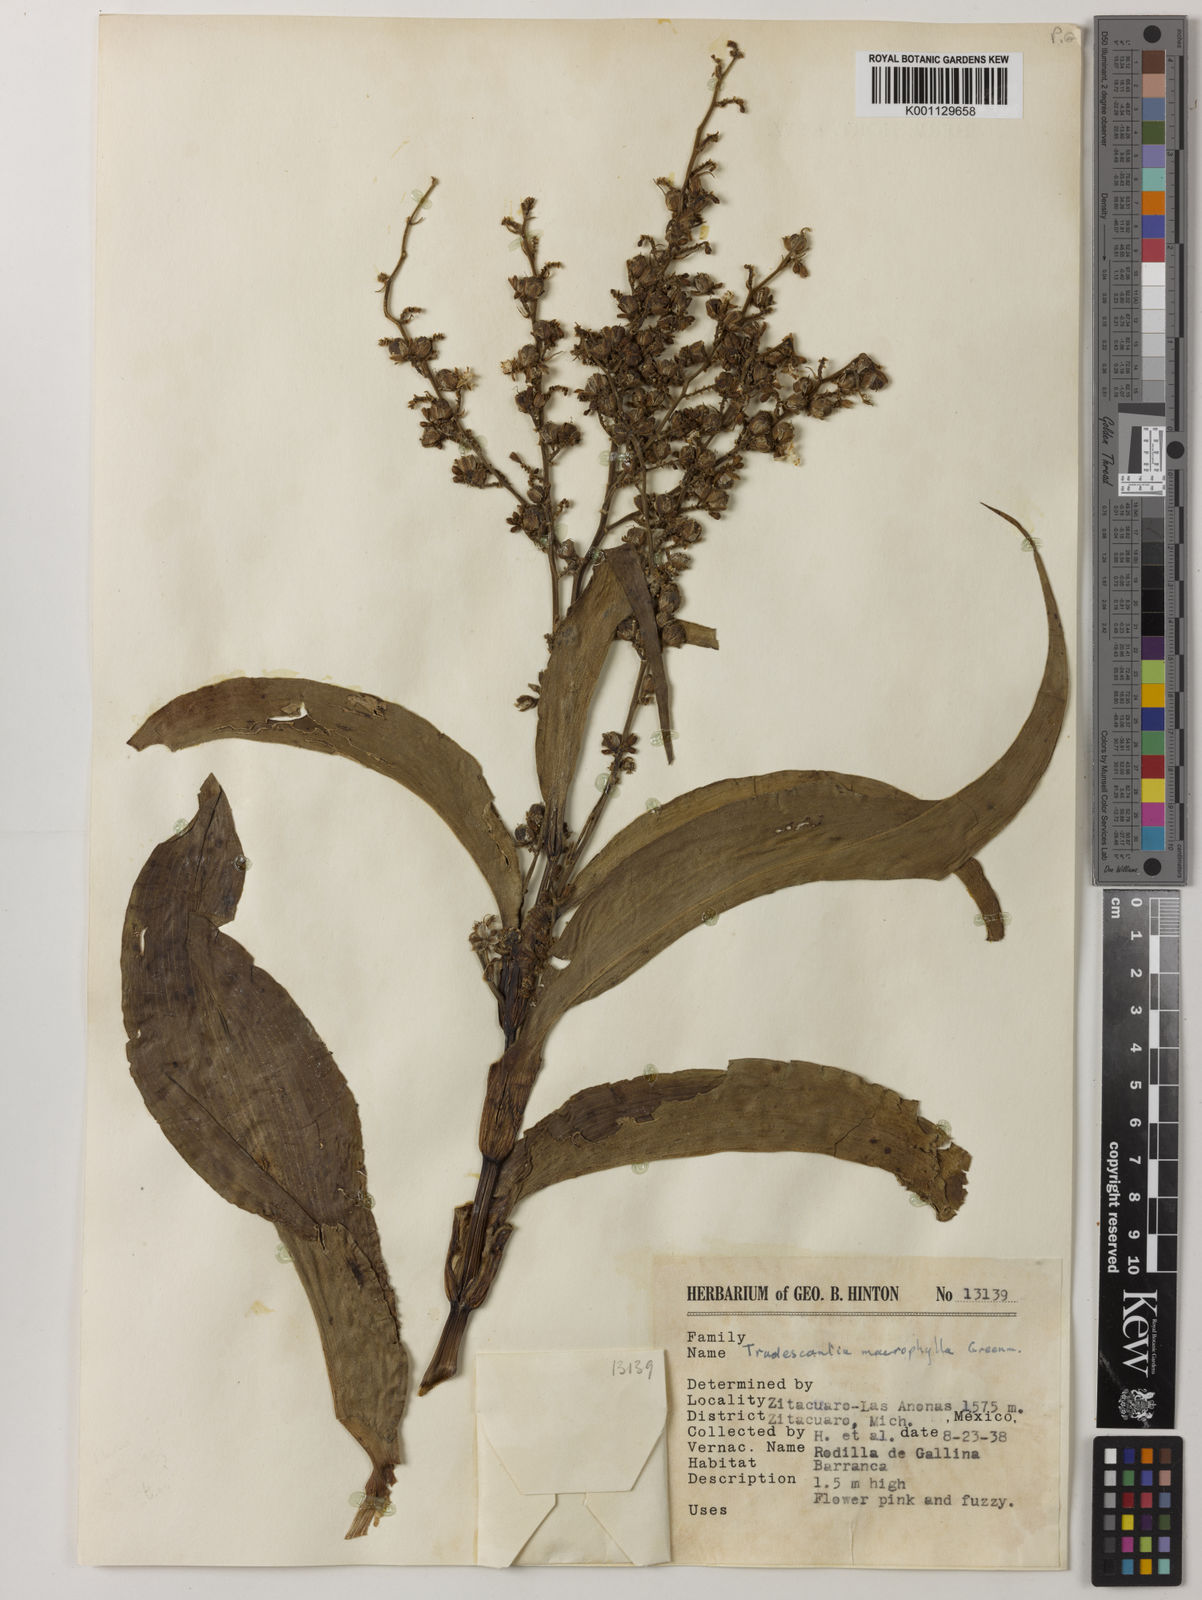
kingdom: Plantae
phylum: Tracheophyta
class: Liliopsida
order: Commelinales
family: Commelinaceae
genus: Thyrsanthemum
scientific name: Thyrsanthemum longifolium
